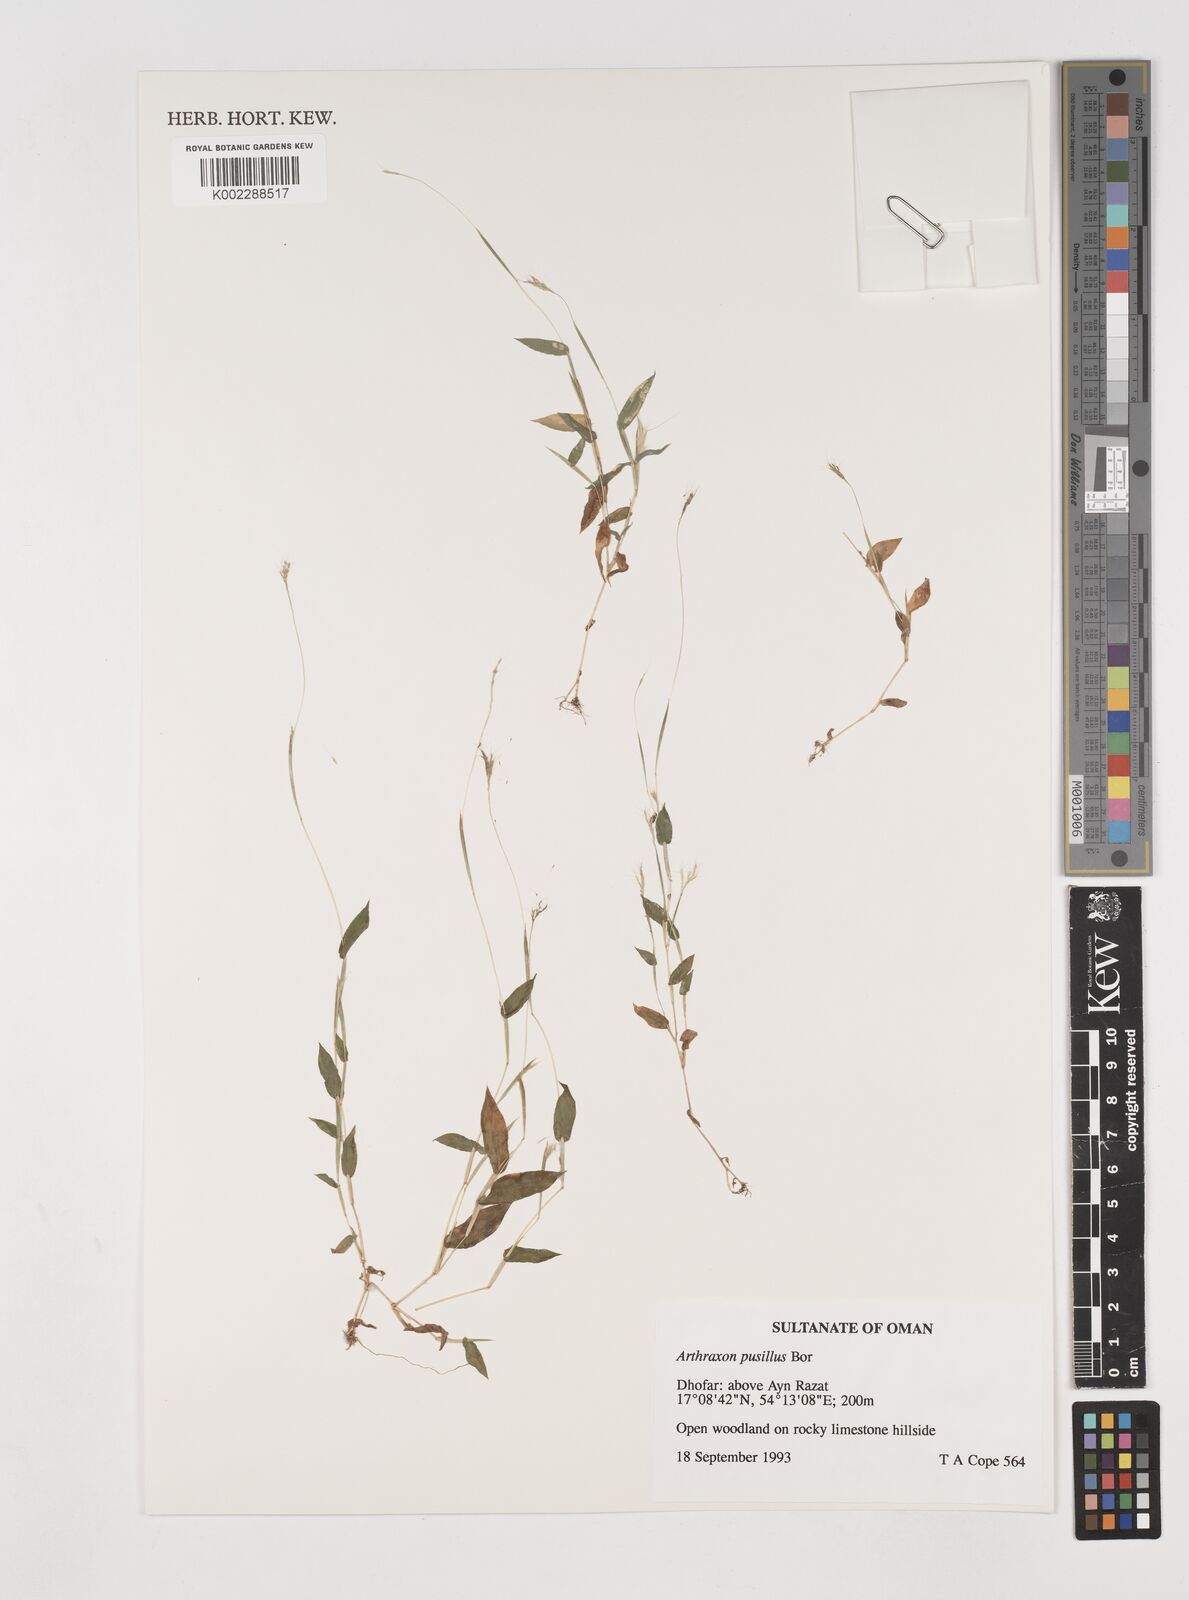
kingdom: Plantae
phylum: Tracheophyta
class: Liliopsida
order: Poales
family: Poaceae
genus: Arthraxon
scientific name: Arthraxon junnarensis
